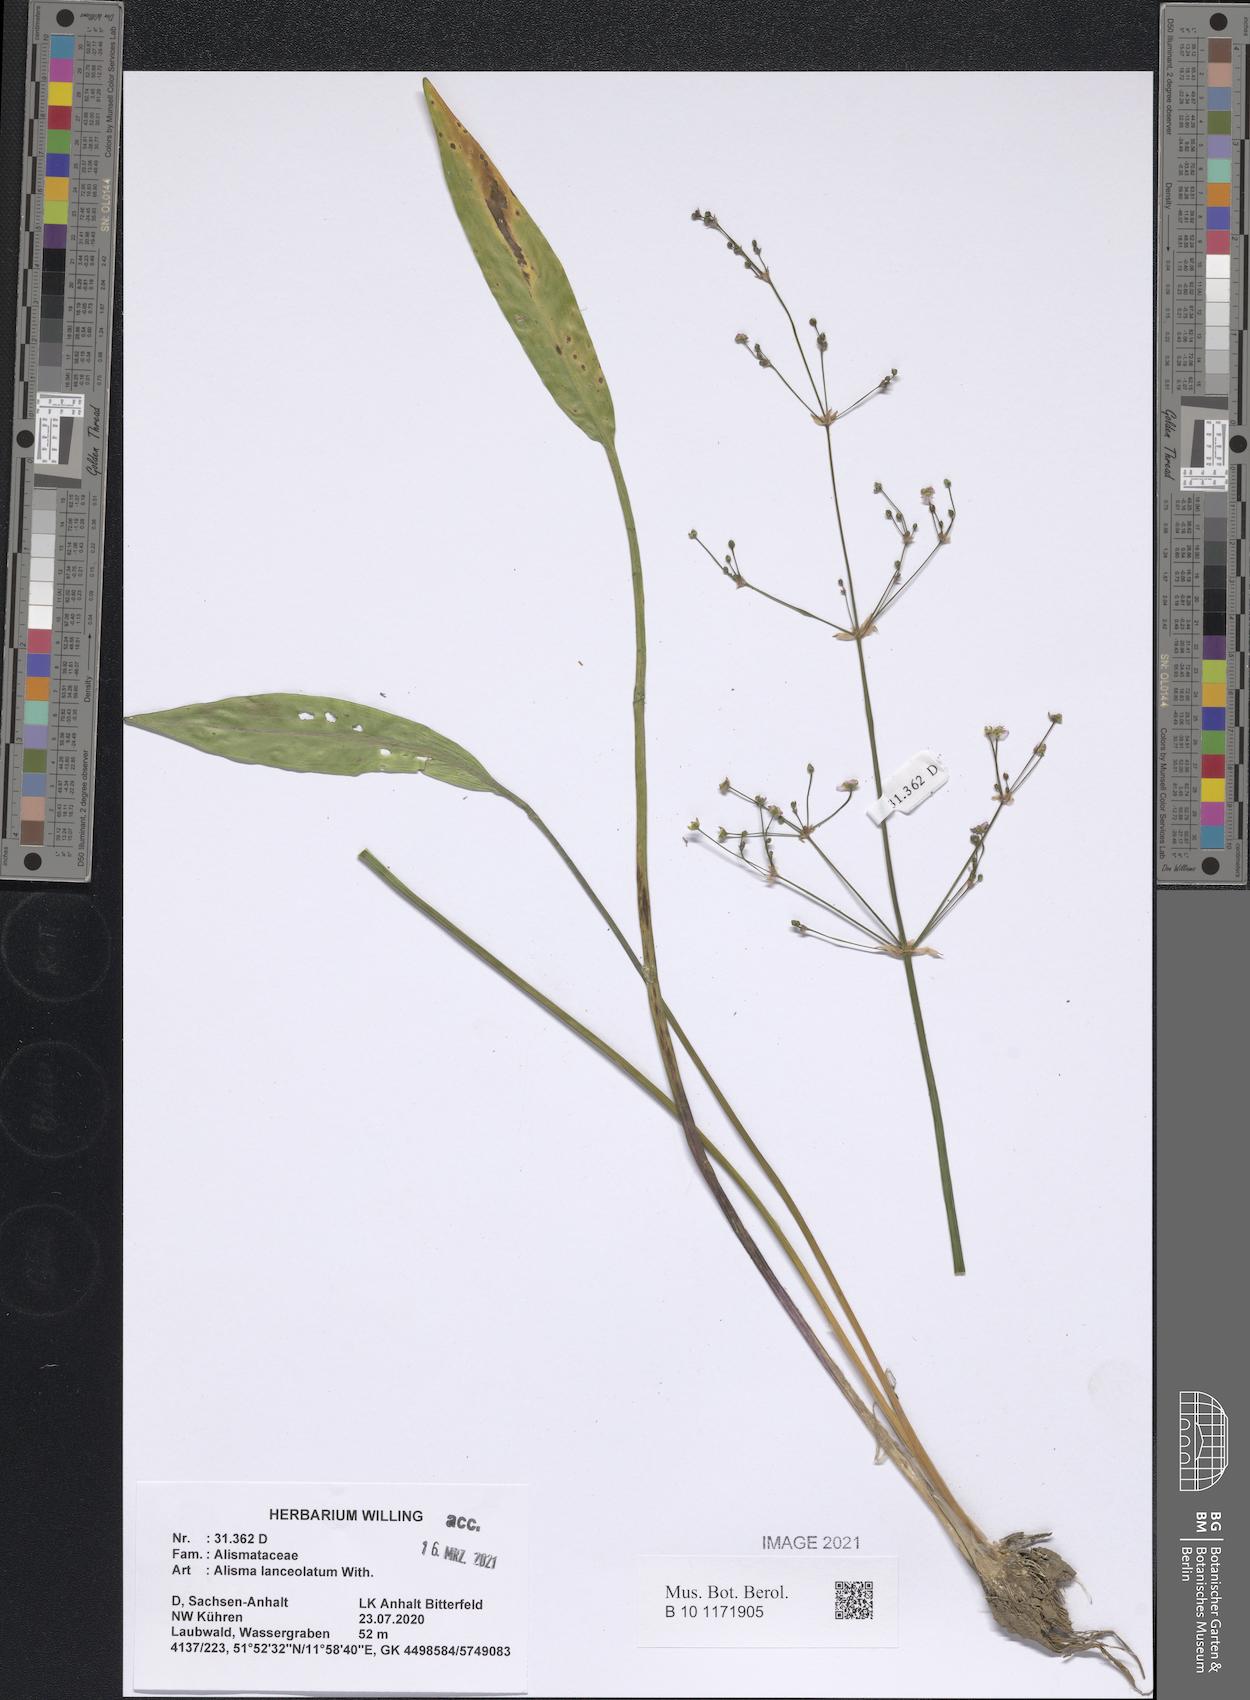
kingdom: Plantae
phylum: Tracheophyta
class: Liliopsida
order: Alismatales
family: Alismataceae
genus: Alisma
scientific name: Alisma lanceolatum
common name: Narrow-leaved water-plantain
